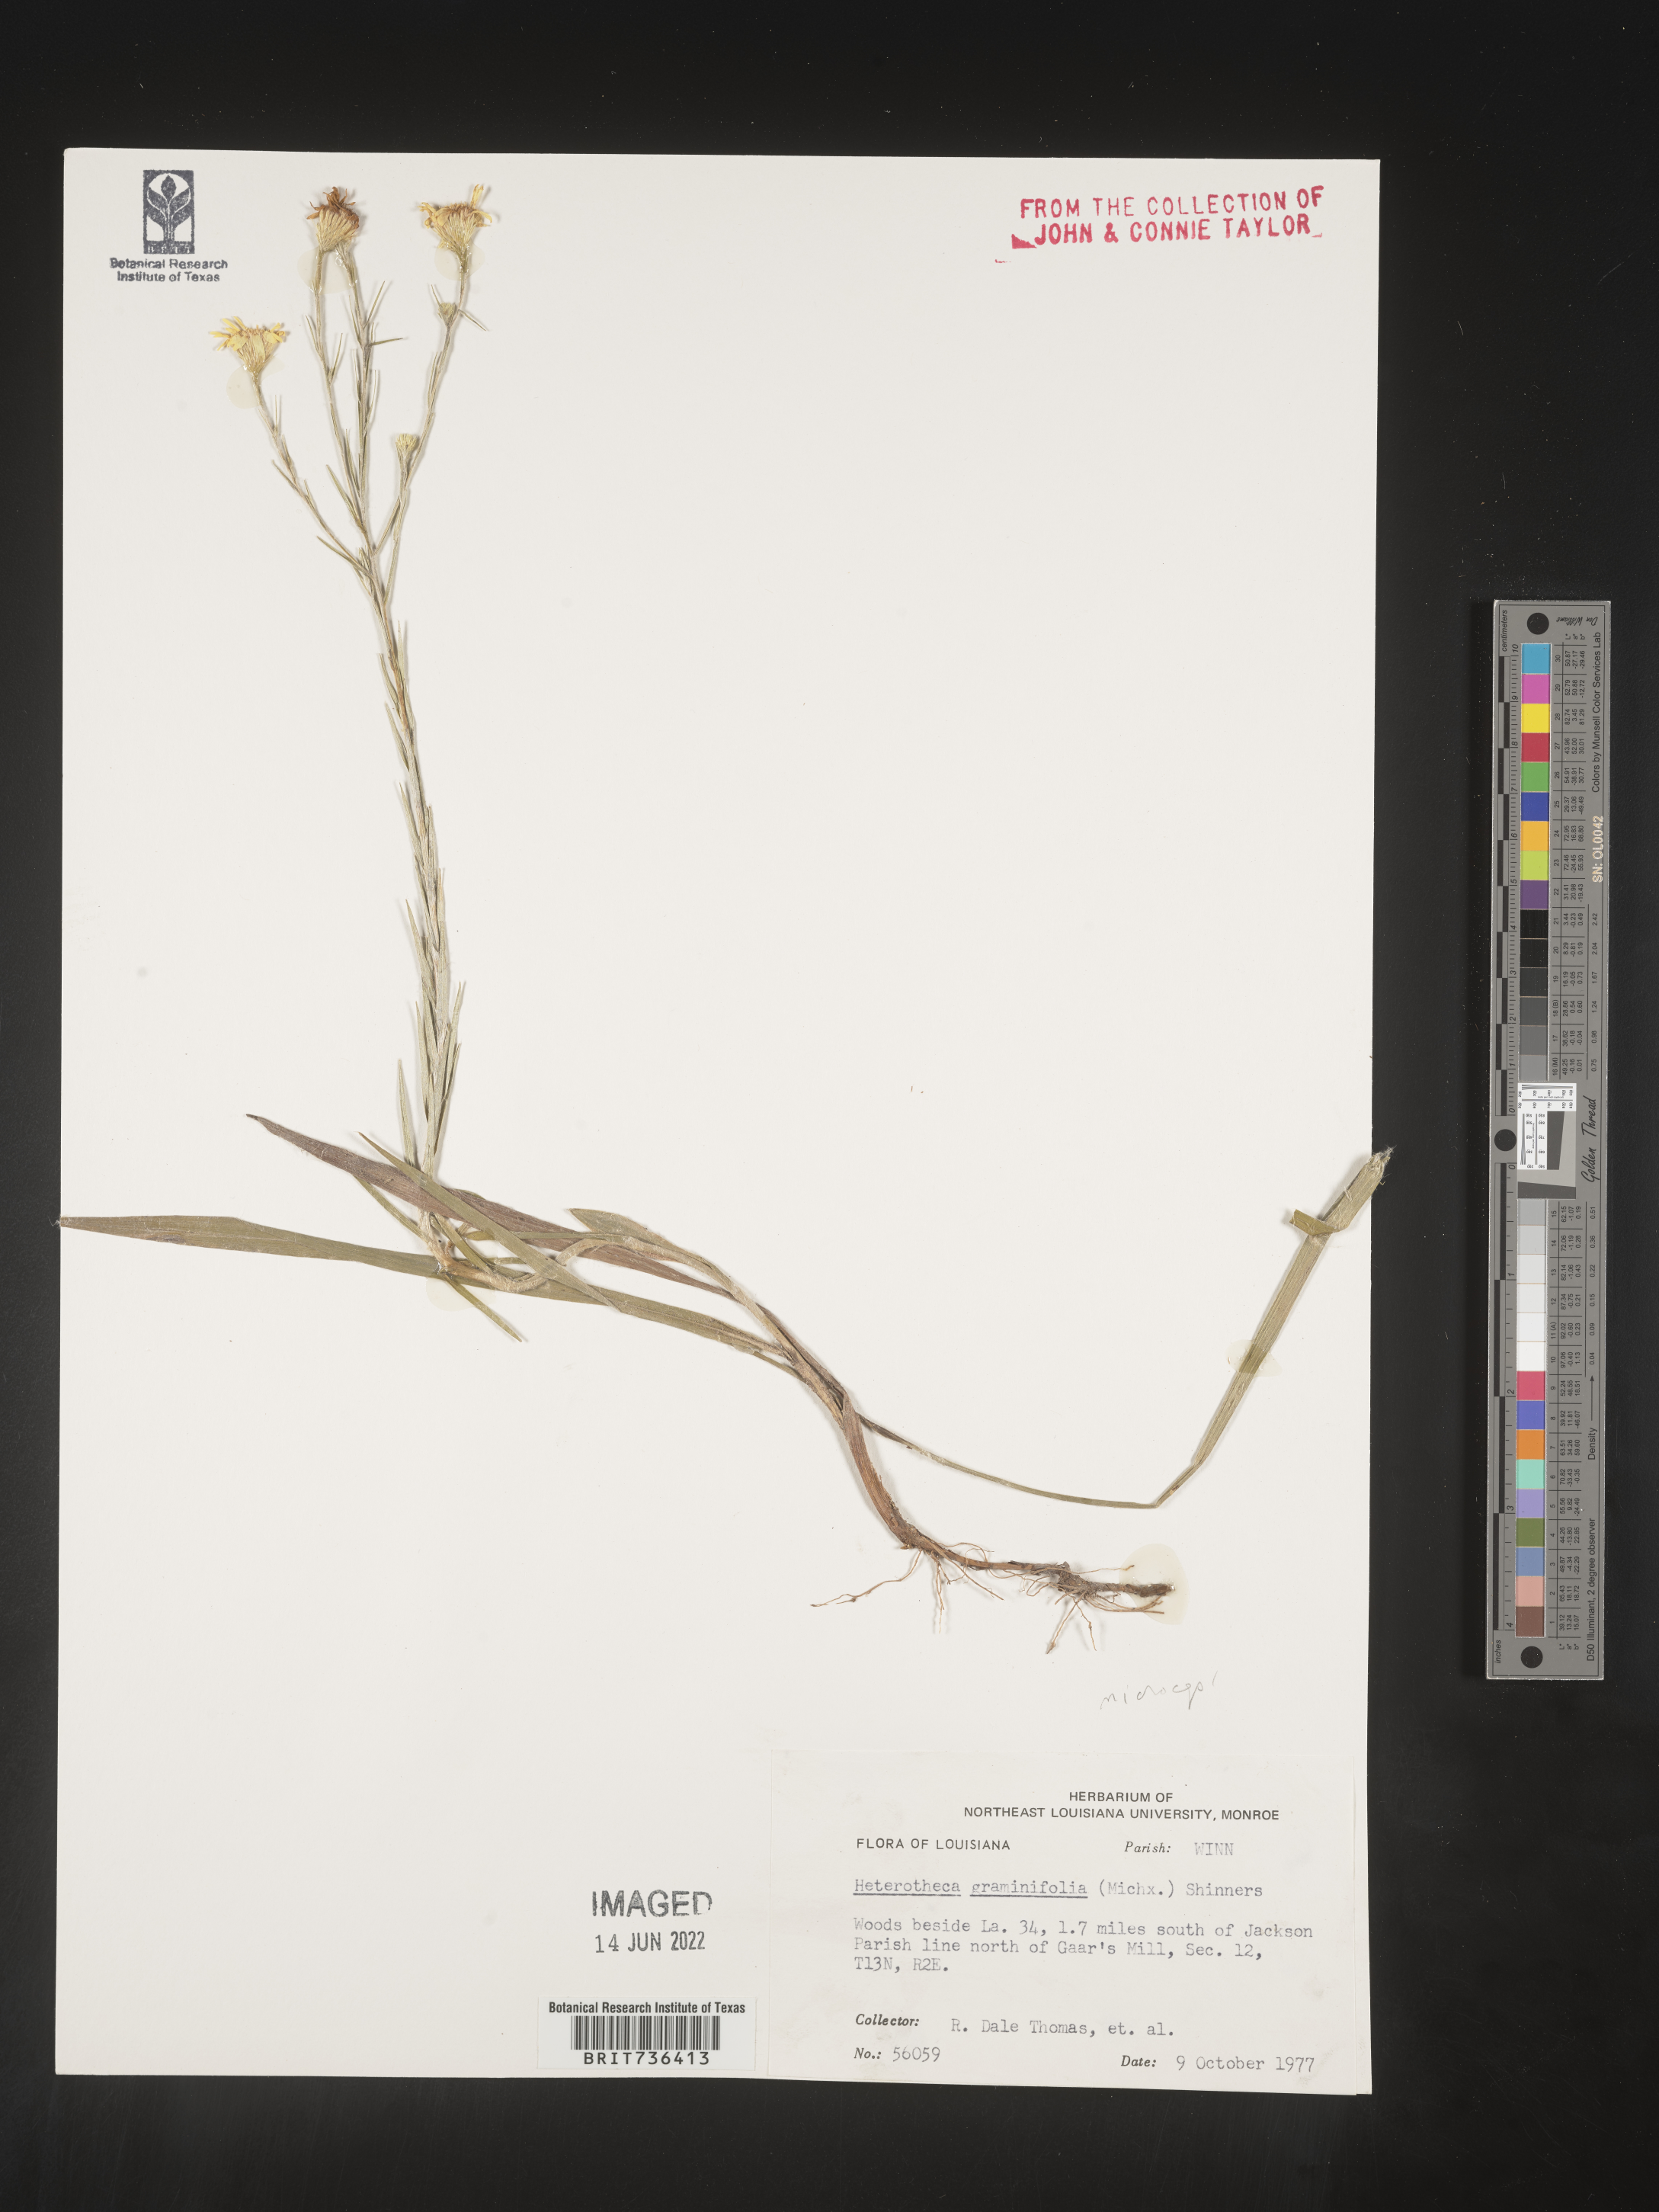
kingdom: Plantae
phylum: Tracheophyta
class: Magnoliopsida
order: Asterales
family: Asteraceae
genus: Pityopsis
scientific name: Pityopsis tenuifolia
